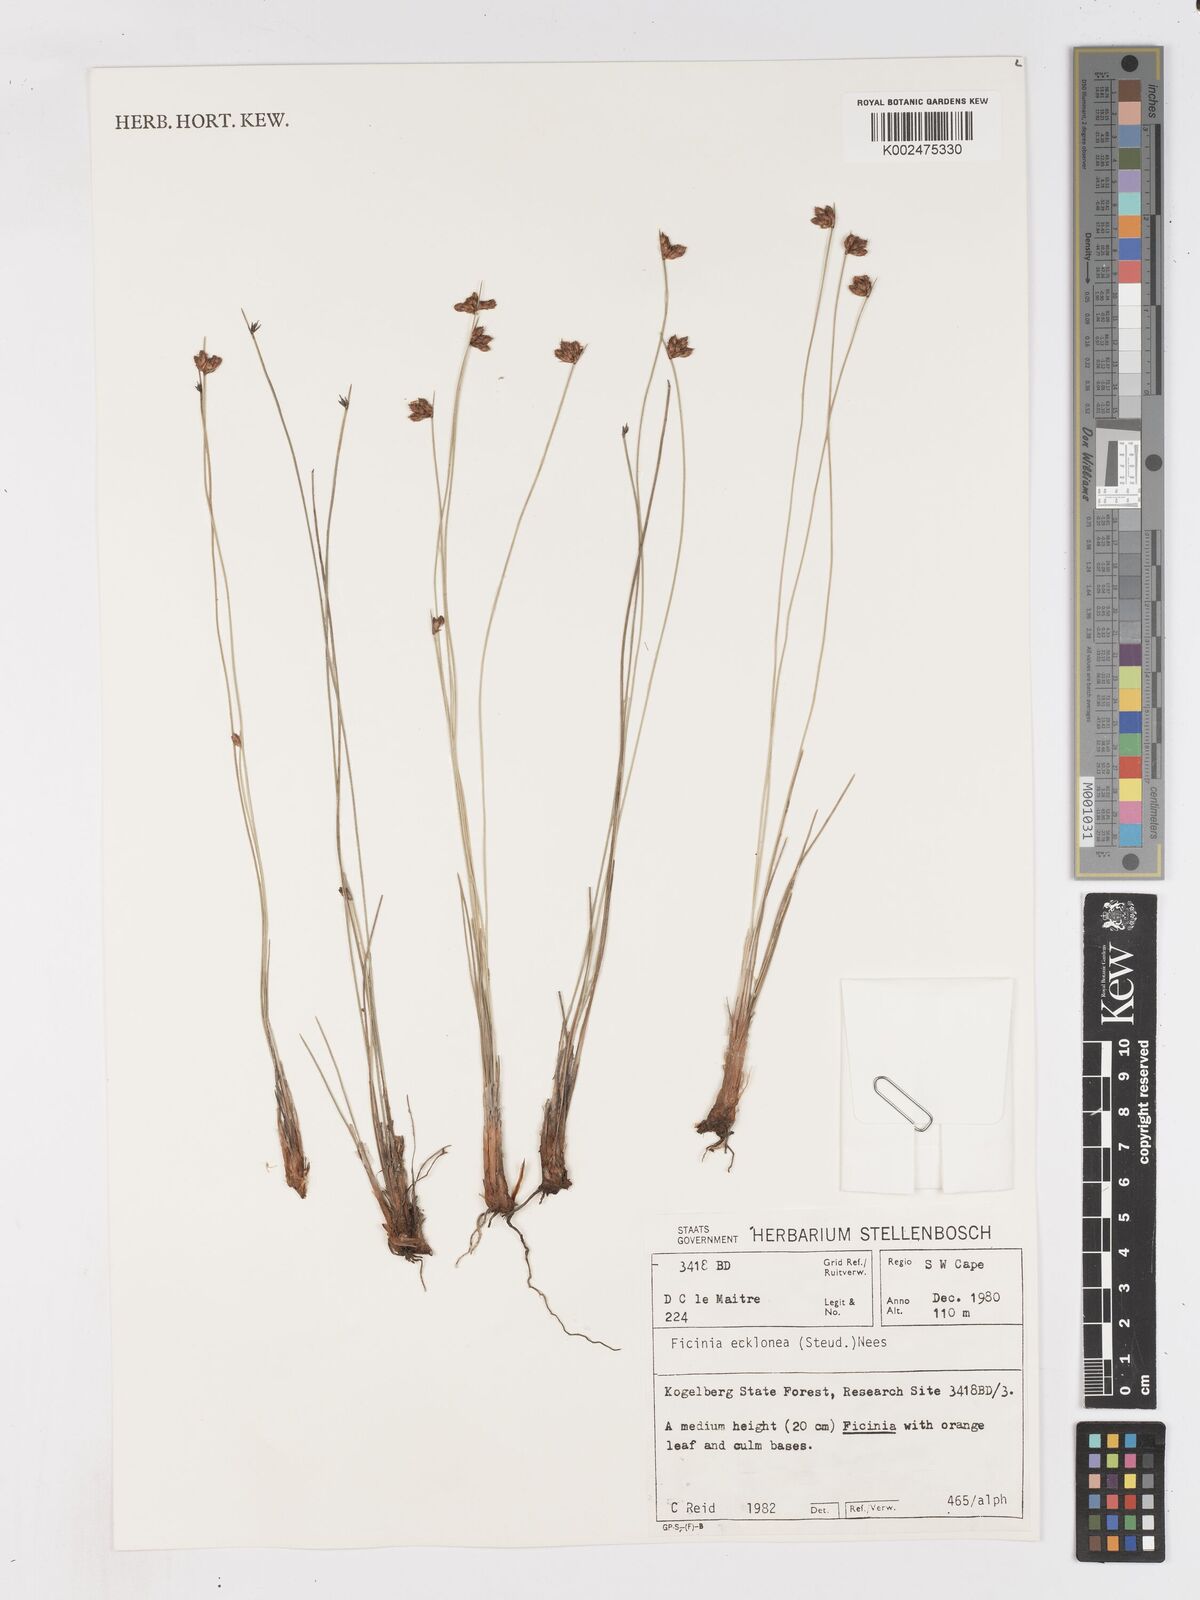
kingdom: Plantae
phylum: Tracheophyta
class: Liliopsida
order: Poales
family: Cyperaceae
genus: Ficinia
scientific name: Ficinia ecklonea
